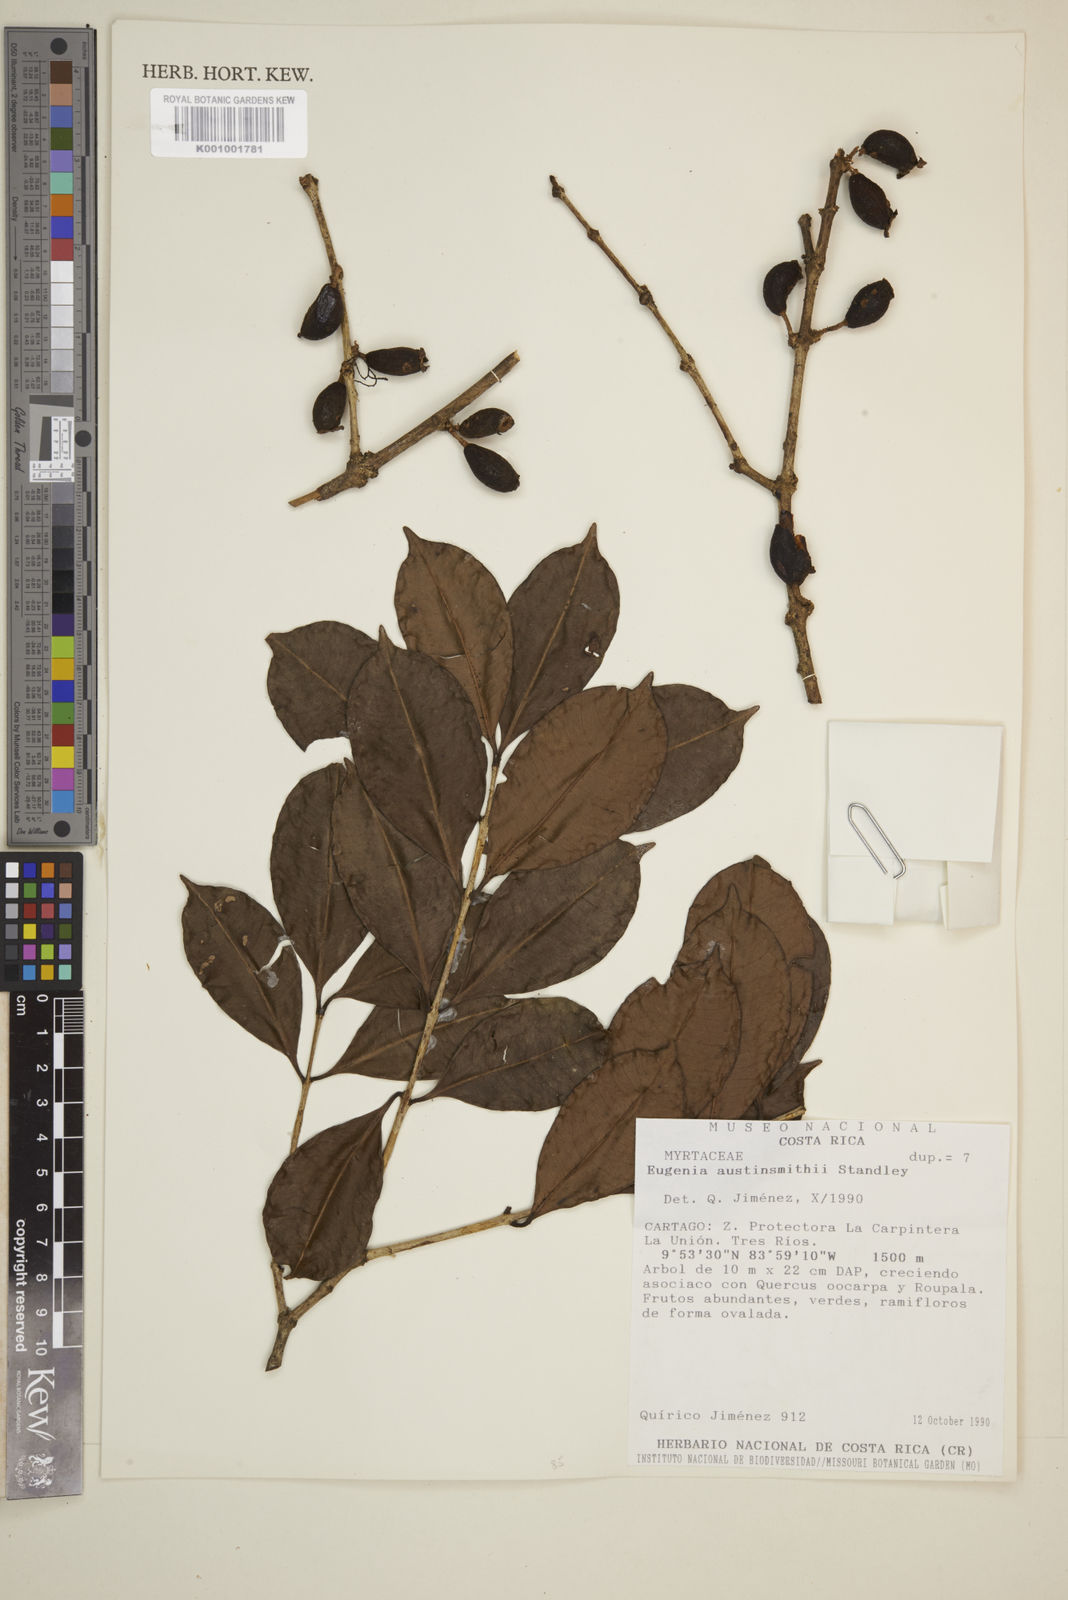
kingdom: Plantae
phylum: Tracheophyta
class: Magnoliopsida
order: Myrtales
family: Myrtaceae
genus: Eugenia
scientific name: Eugenia austin-smithii
